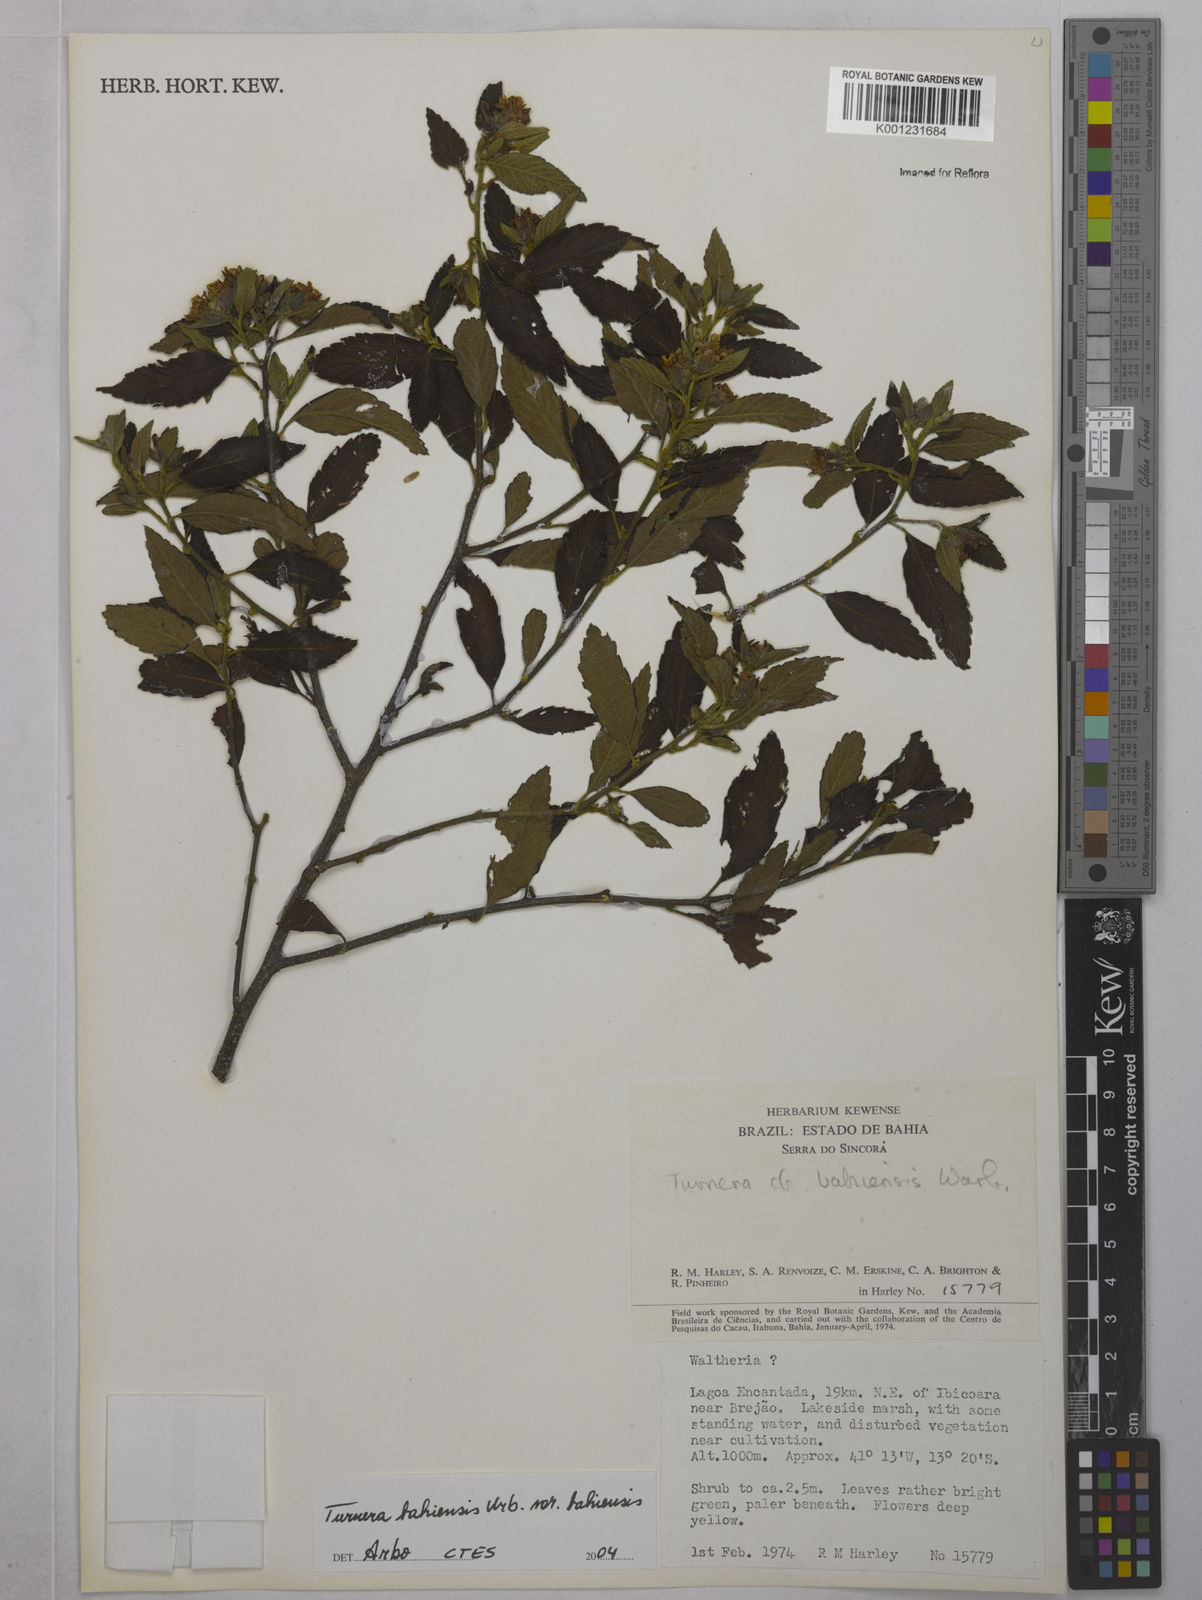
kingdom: Plantae
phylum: Tracheophyta
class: Magnoliopsida
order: Malpighiales
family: Turneraceae
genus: Turnera
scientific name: Turnera bahiensis
